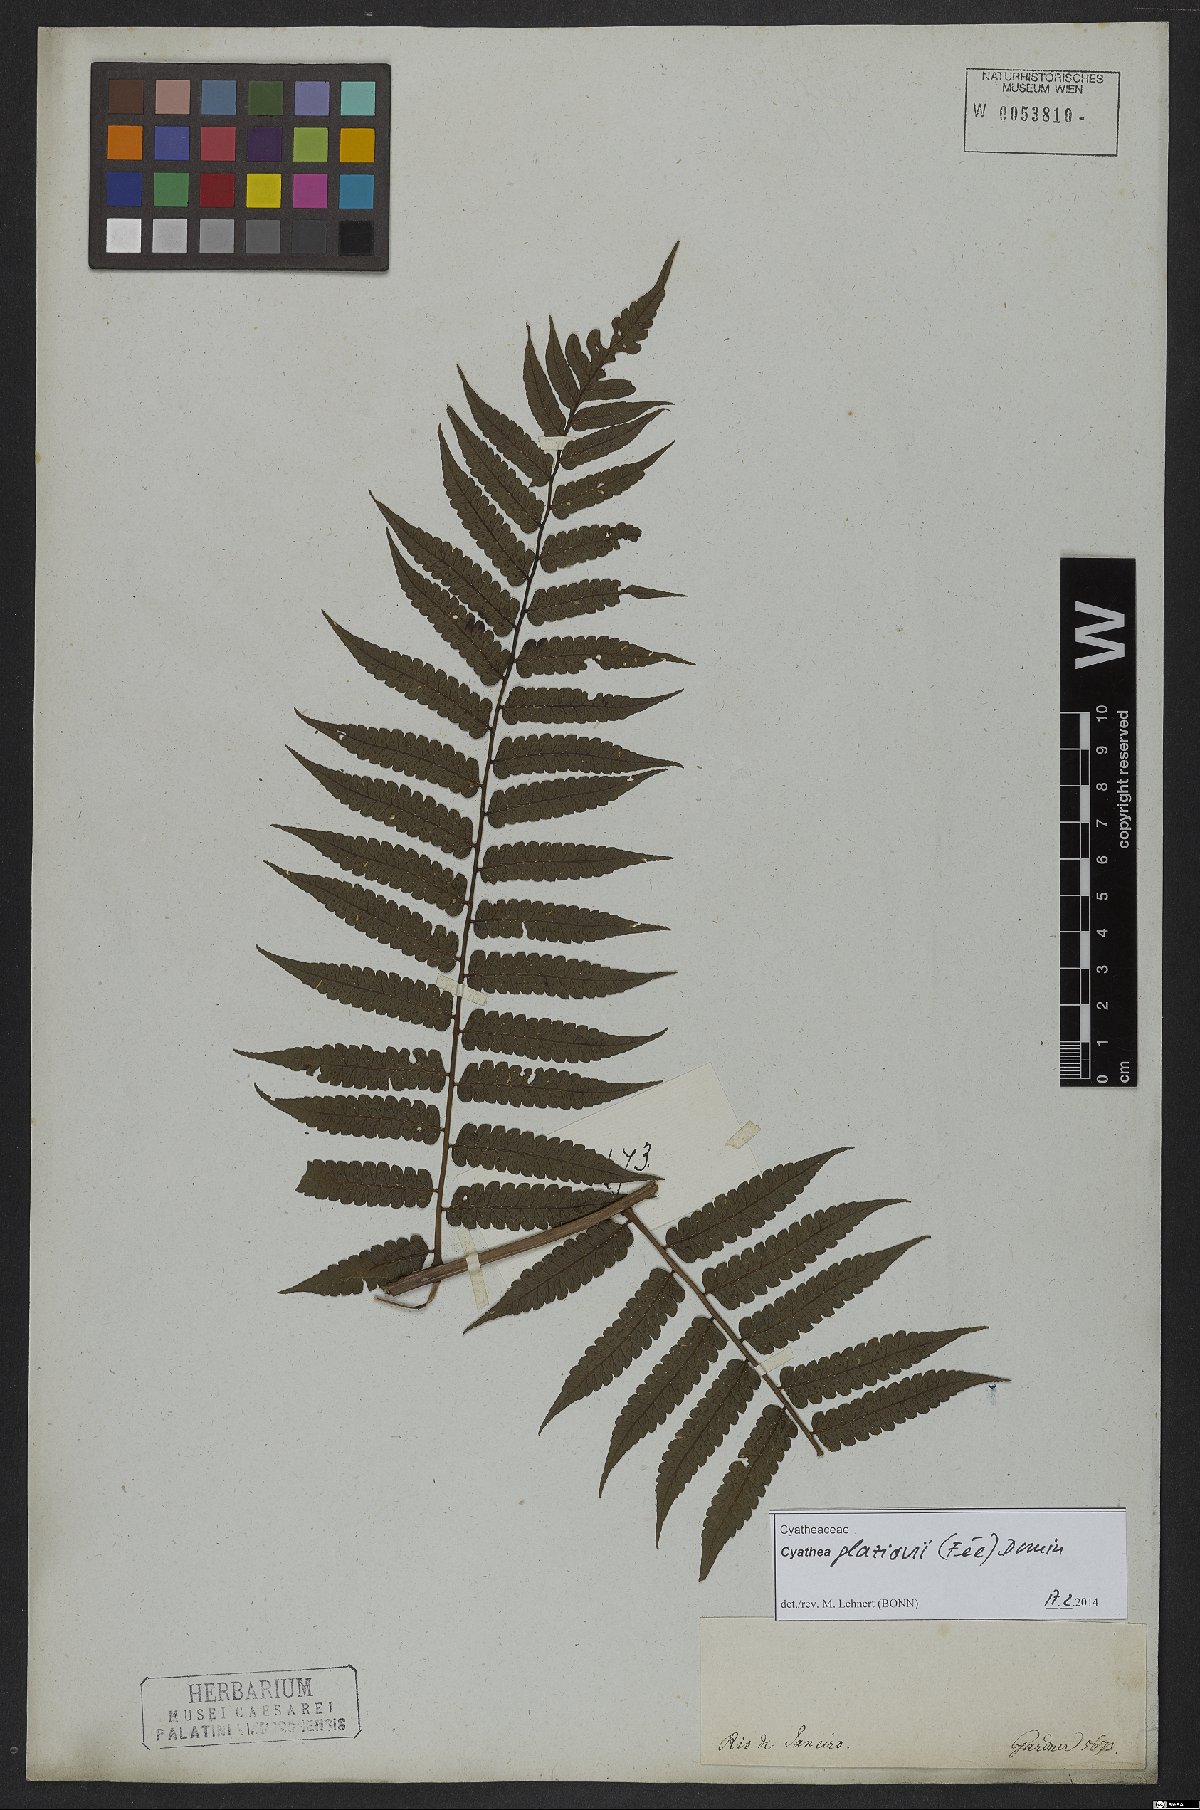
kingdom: Plantae
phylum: Tracheophyta
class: Polypodiopsida
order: Cyatheales
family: Cyatheaceae
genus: Cyathea
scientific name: Cyathea glaziovii
